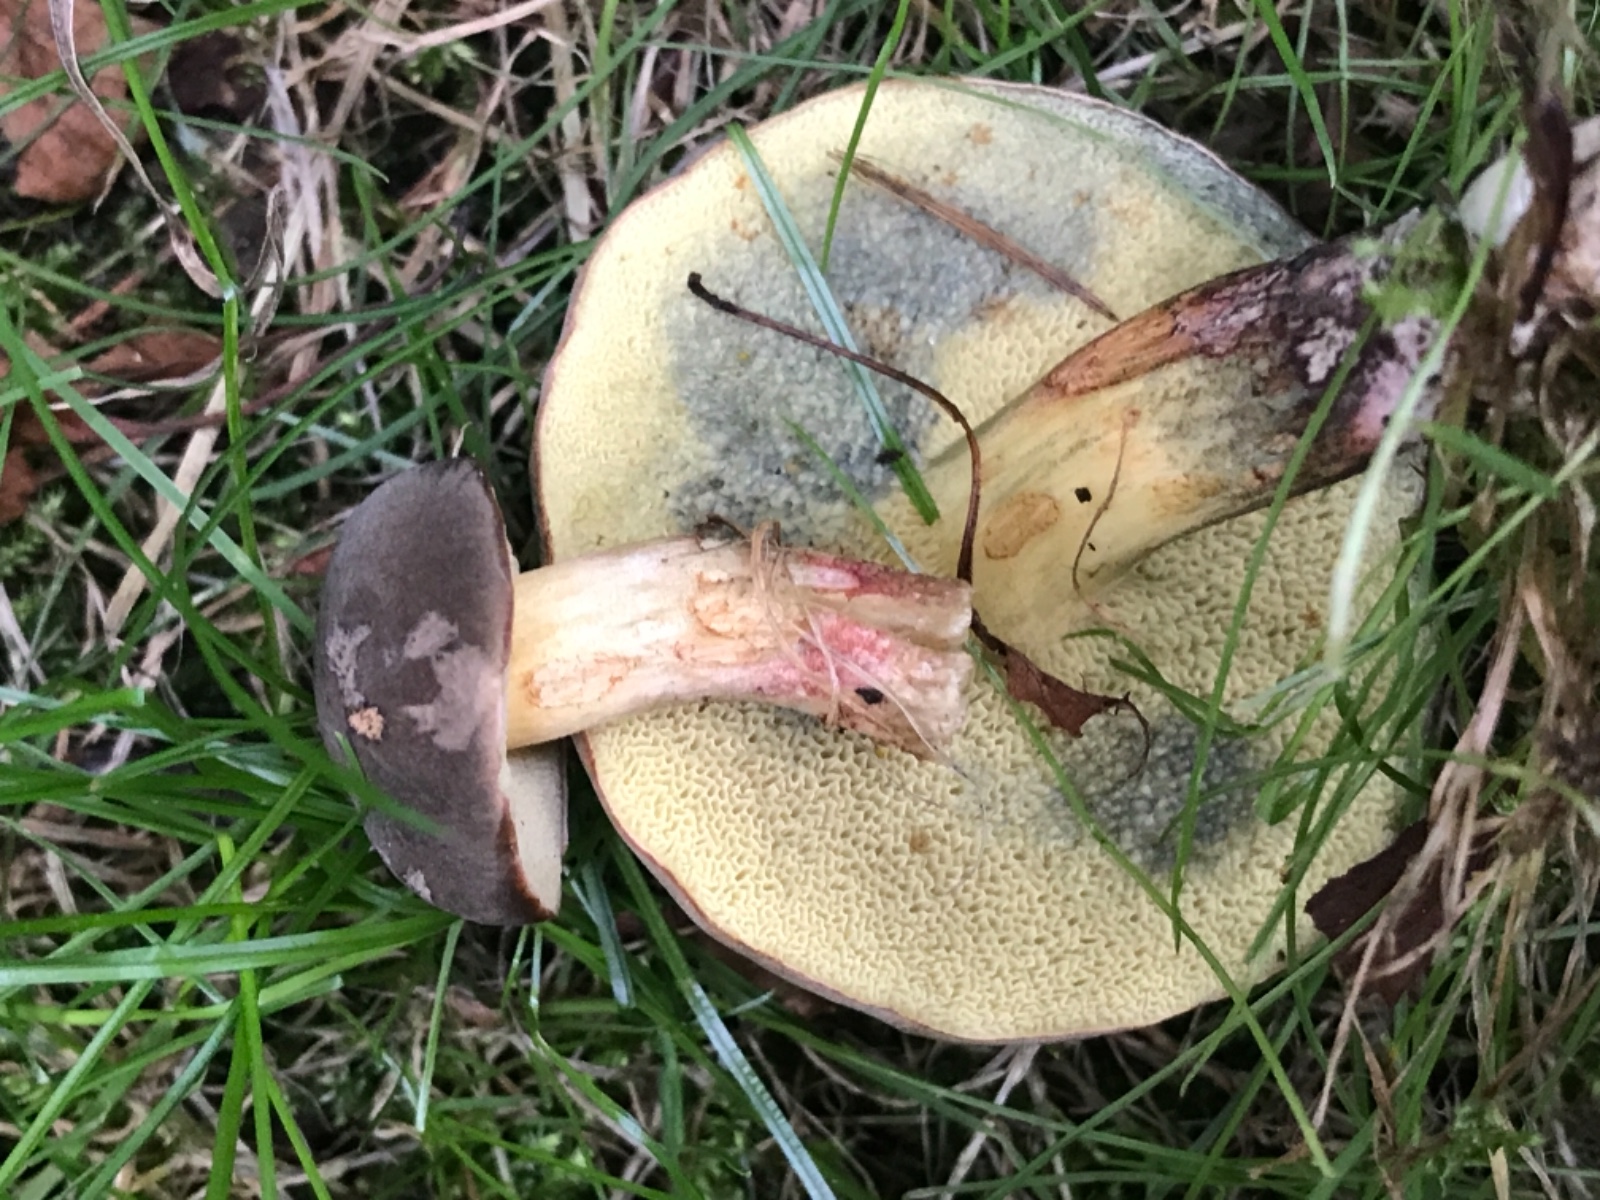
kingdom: Fungi
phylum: Basidiomycota
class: Agaricomycetes
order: Boletales
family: Boletaceae
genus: Xerocomellus
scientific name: Xerocomellus cisalpinus
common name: finsprukken rørhat
